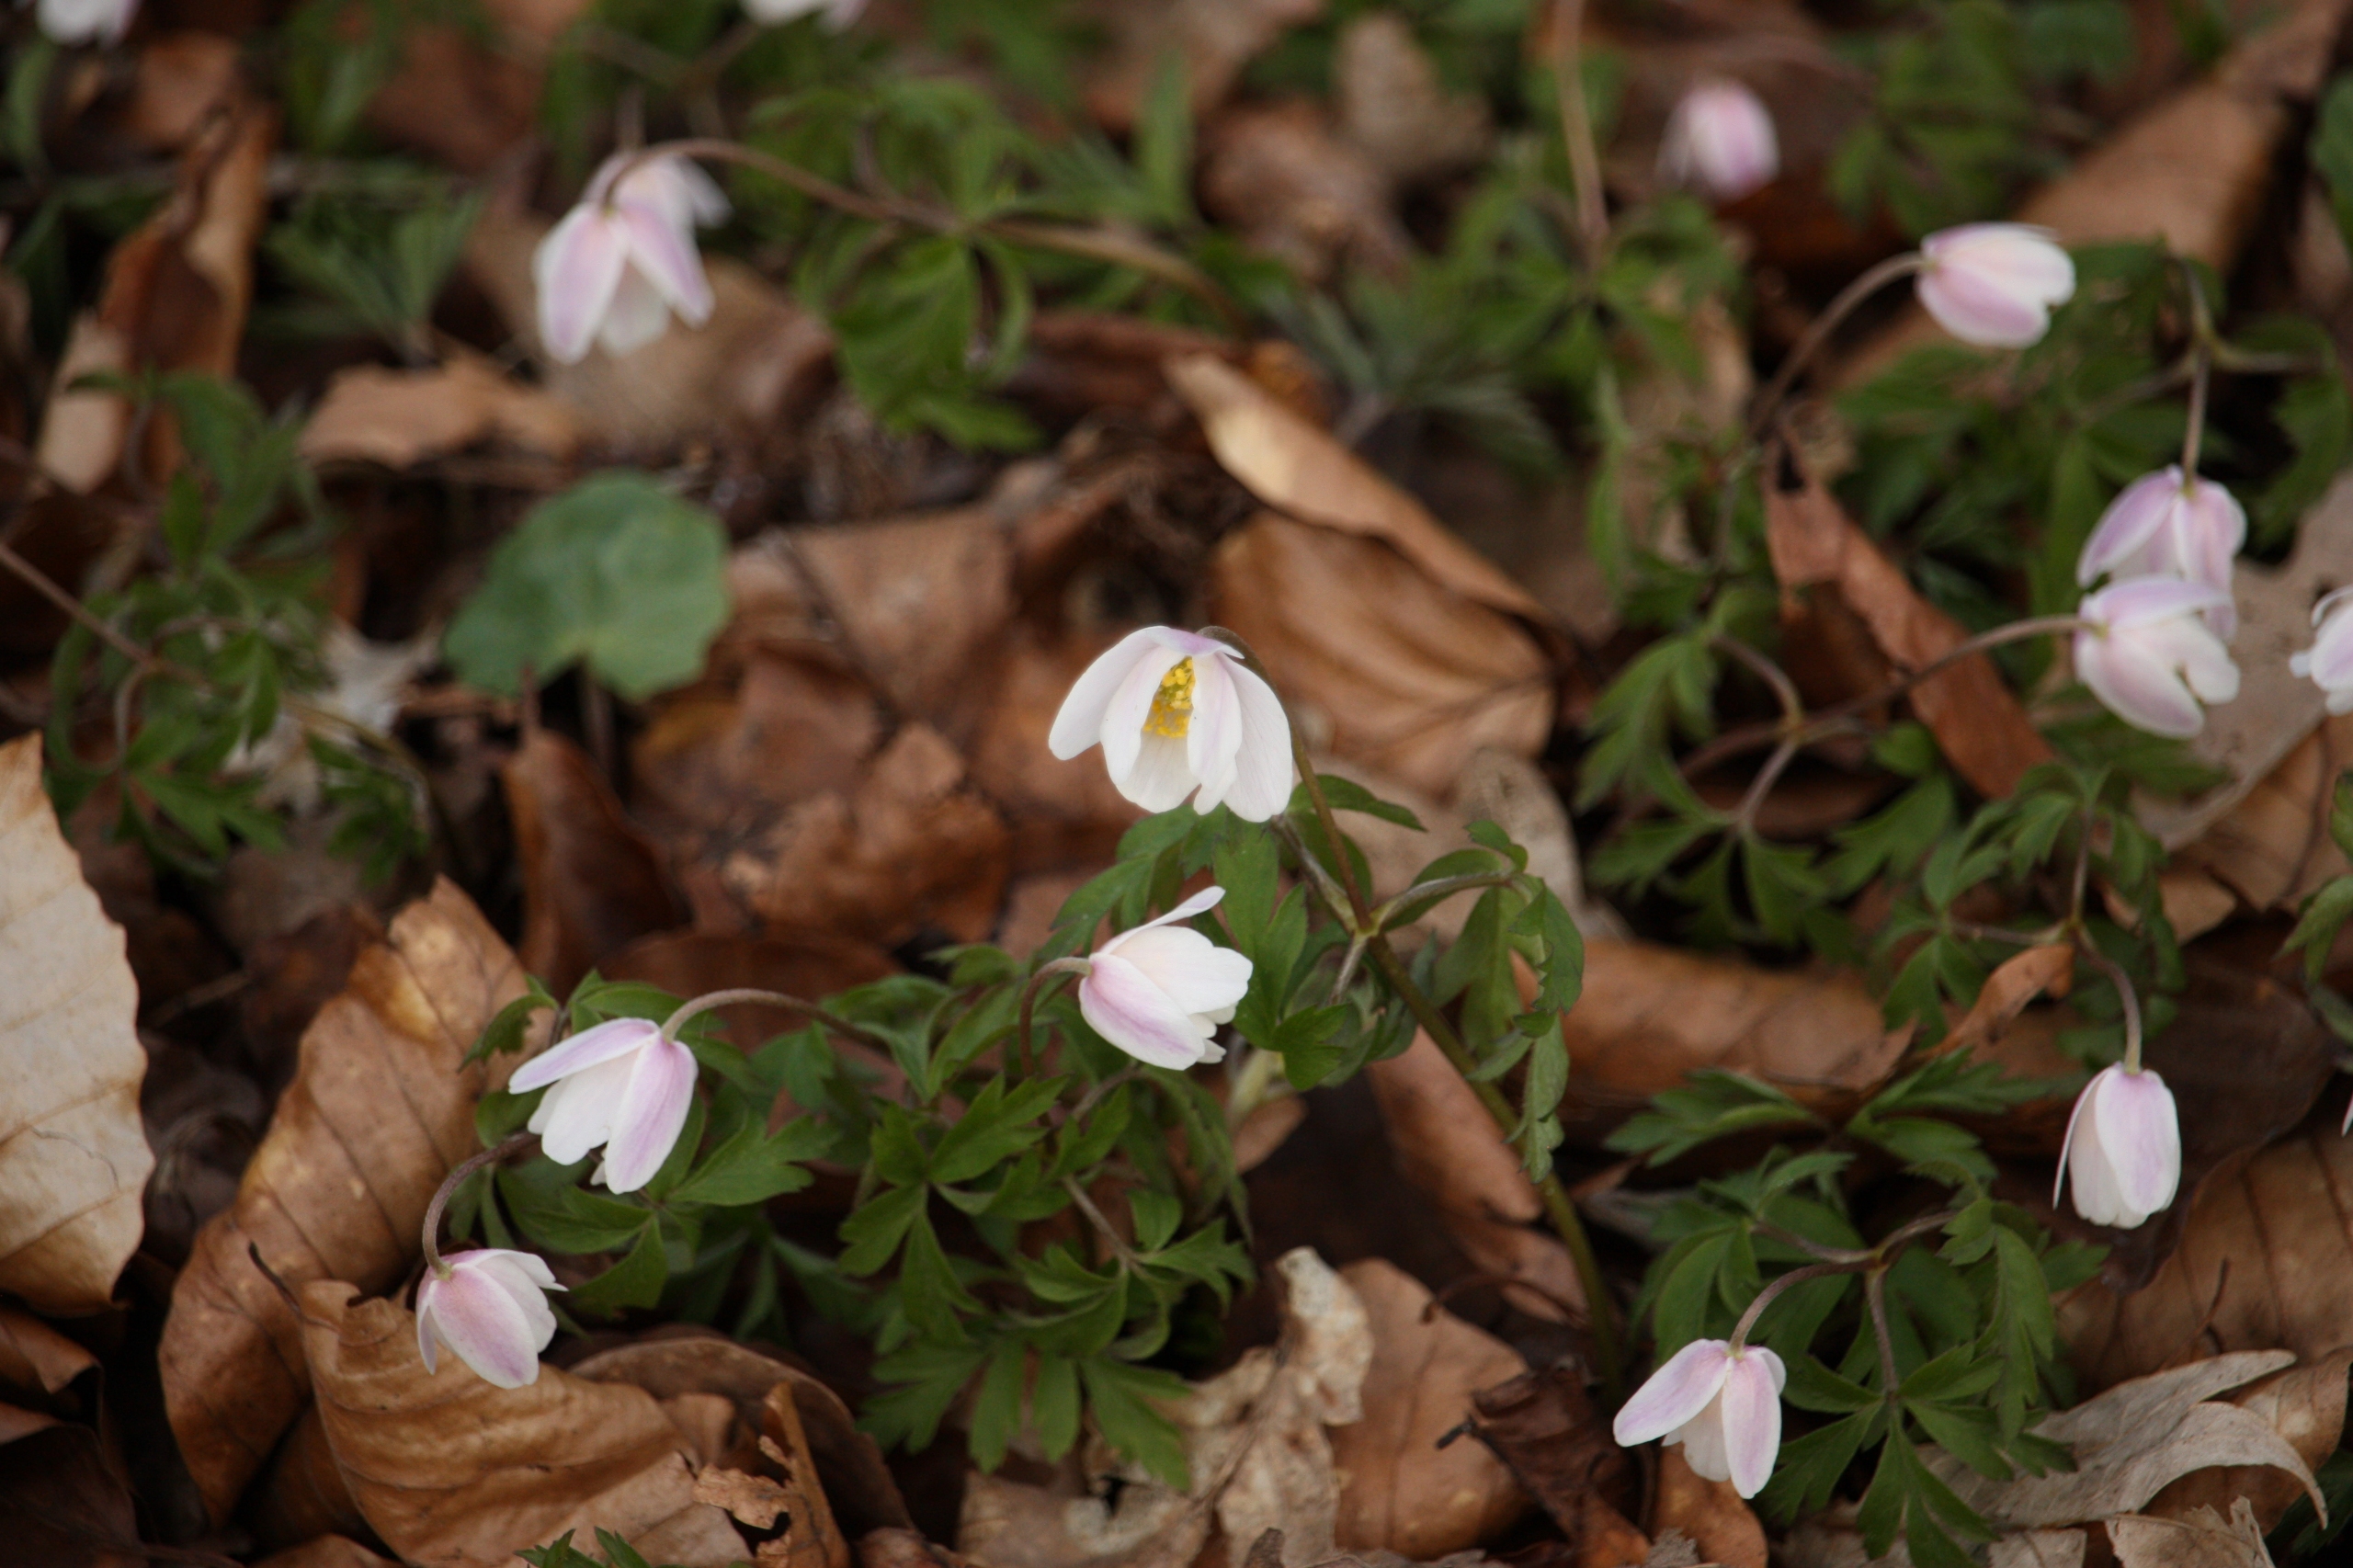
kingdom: Plantae
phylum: Tracheophyta
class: Magnoliopsida
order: Ranunculales
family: Ranunculaceae
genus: Anemone
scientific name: Anemone nemorosa
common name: Hvid anemone
